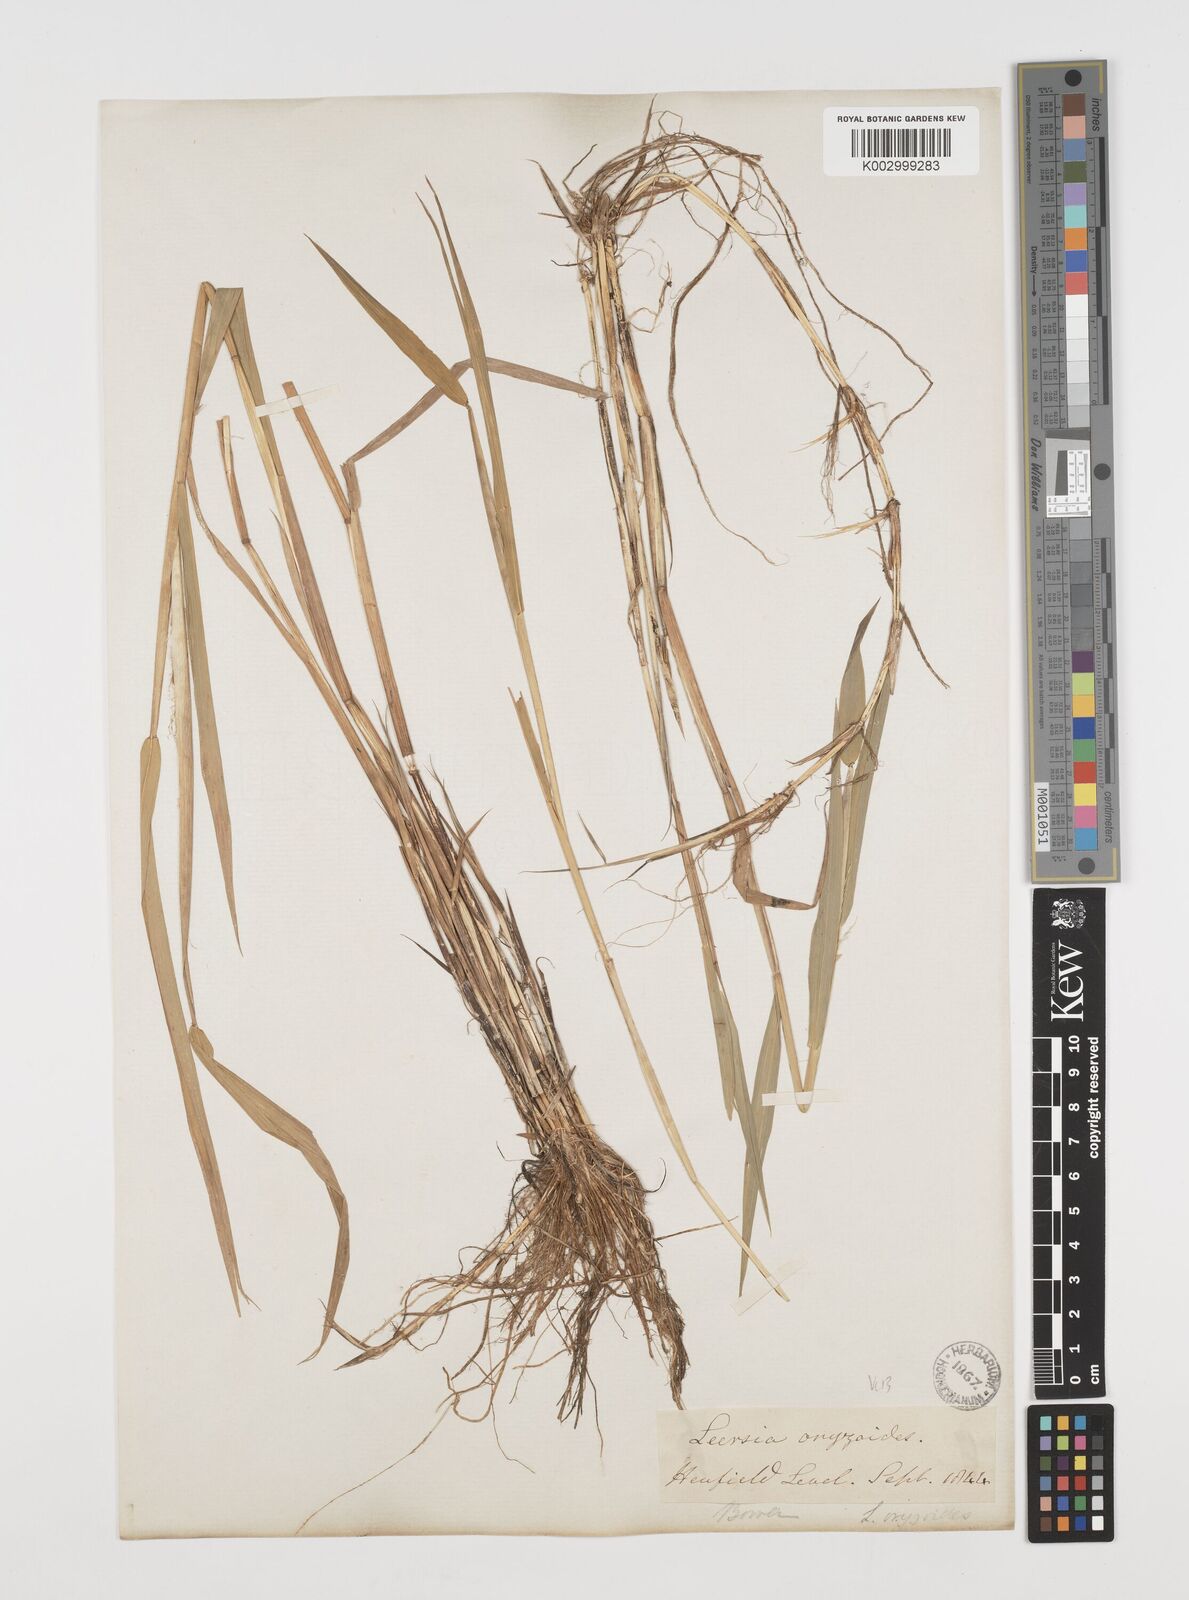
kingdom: Plantae
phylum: Tracheophyta
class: Liliopsida
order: Poales
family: Poaceae
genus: Leersia
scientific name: Leersia oryzoides
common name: Cut-grass
